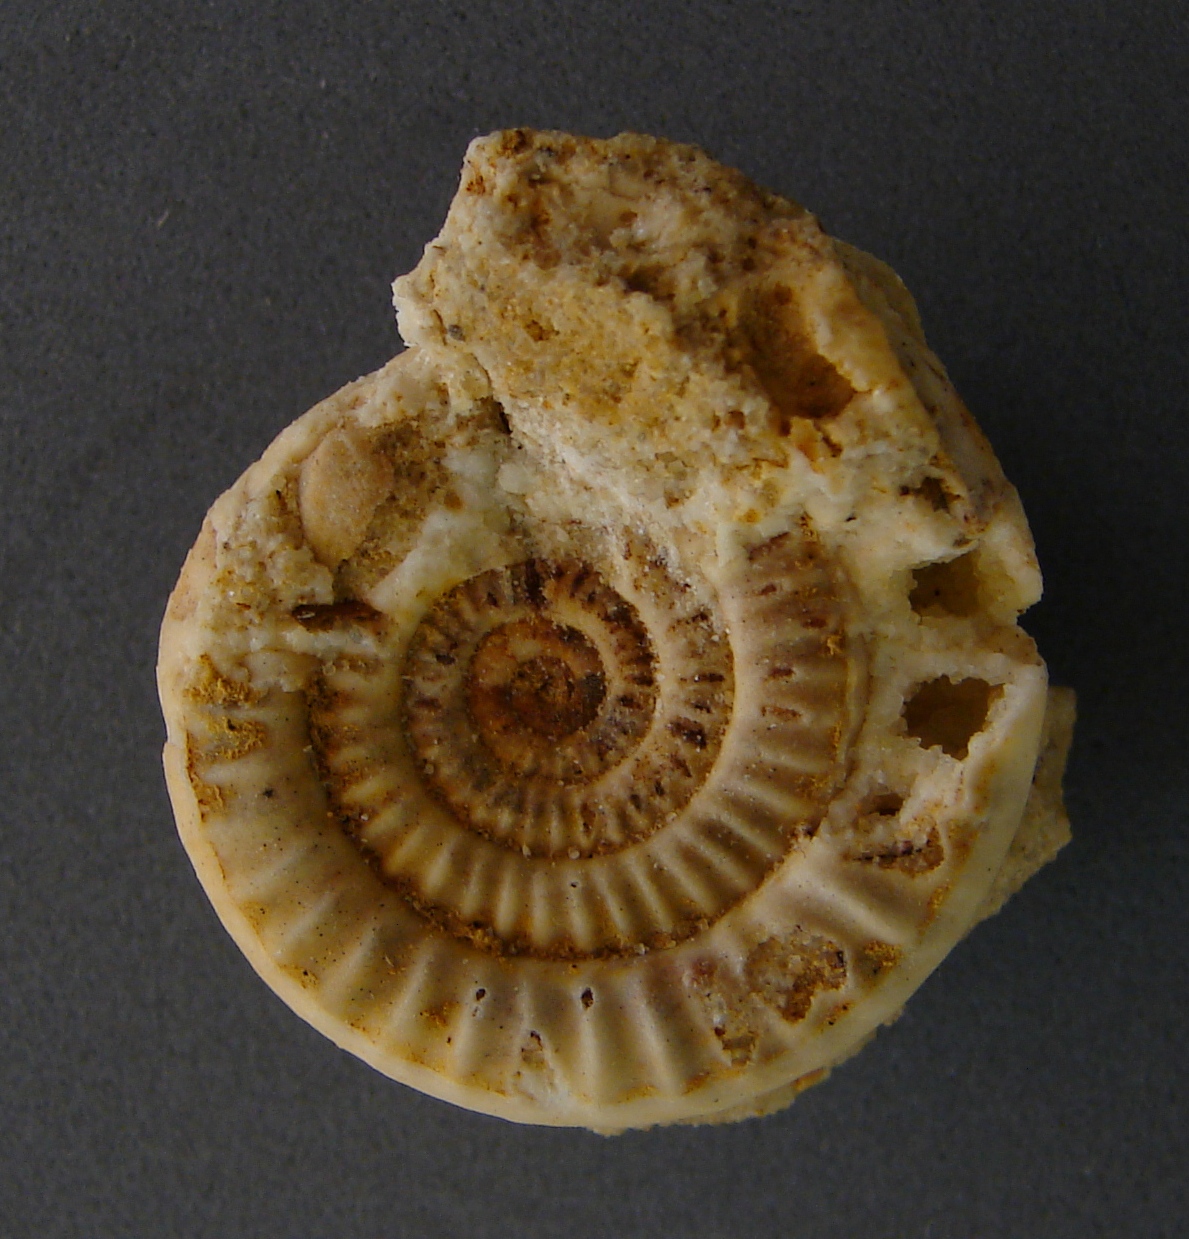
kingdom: Animalia
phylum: Mollusca
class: Cephalopoda
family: Psiloceratidae
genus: Caloceras
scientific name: Caloceras pirondi
